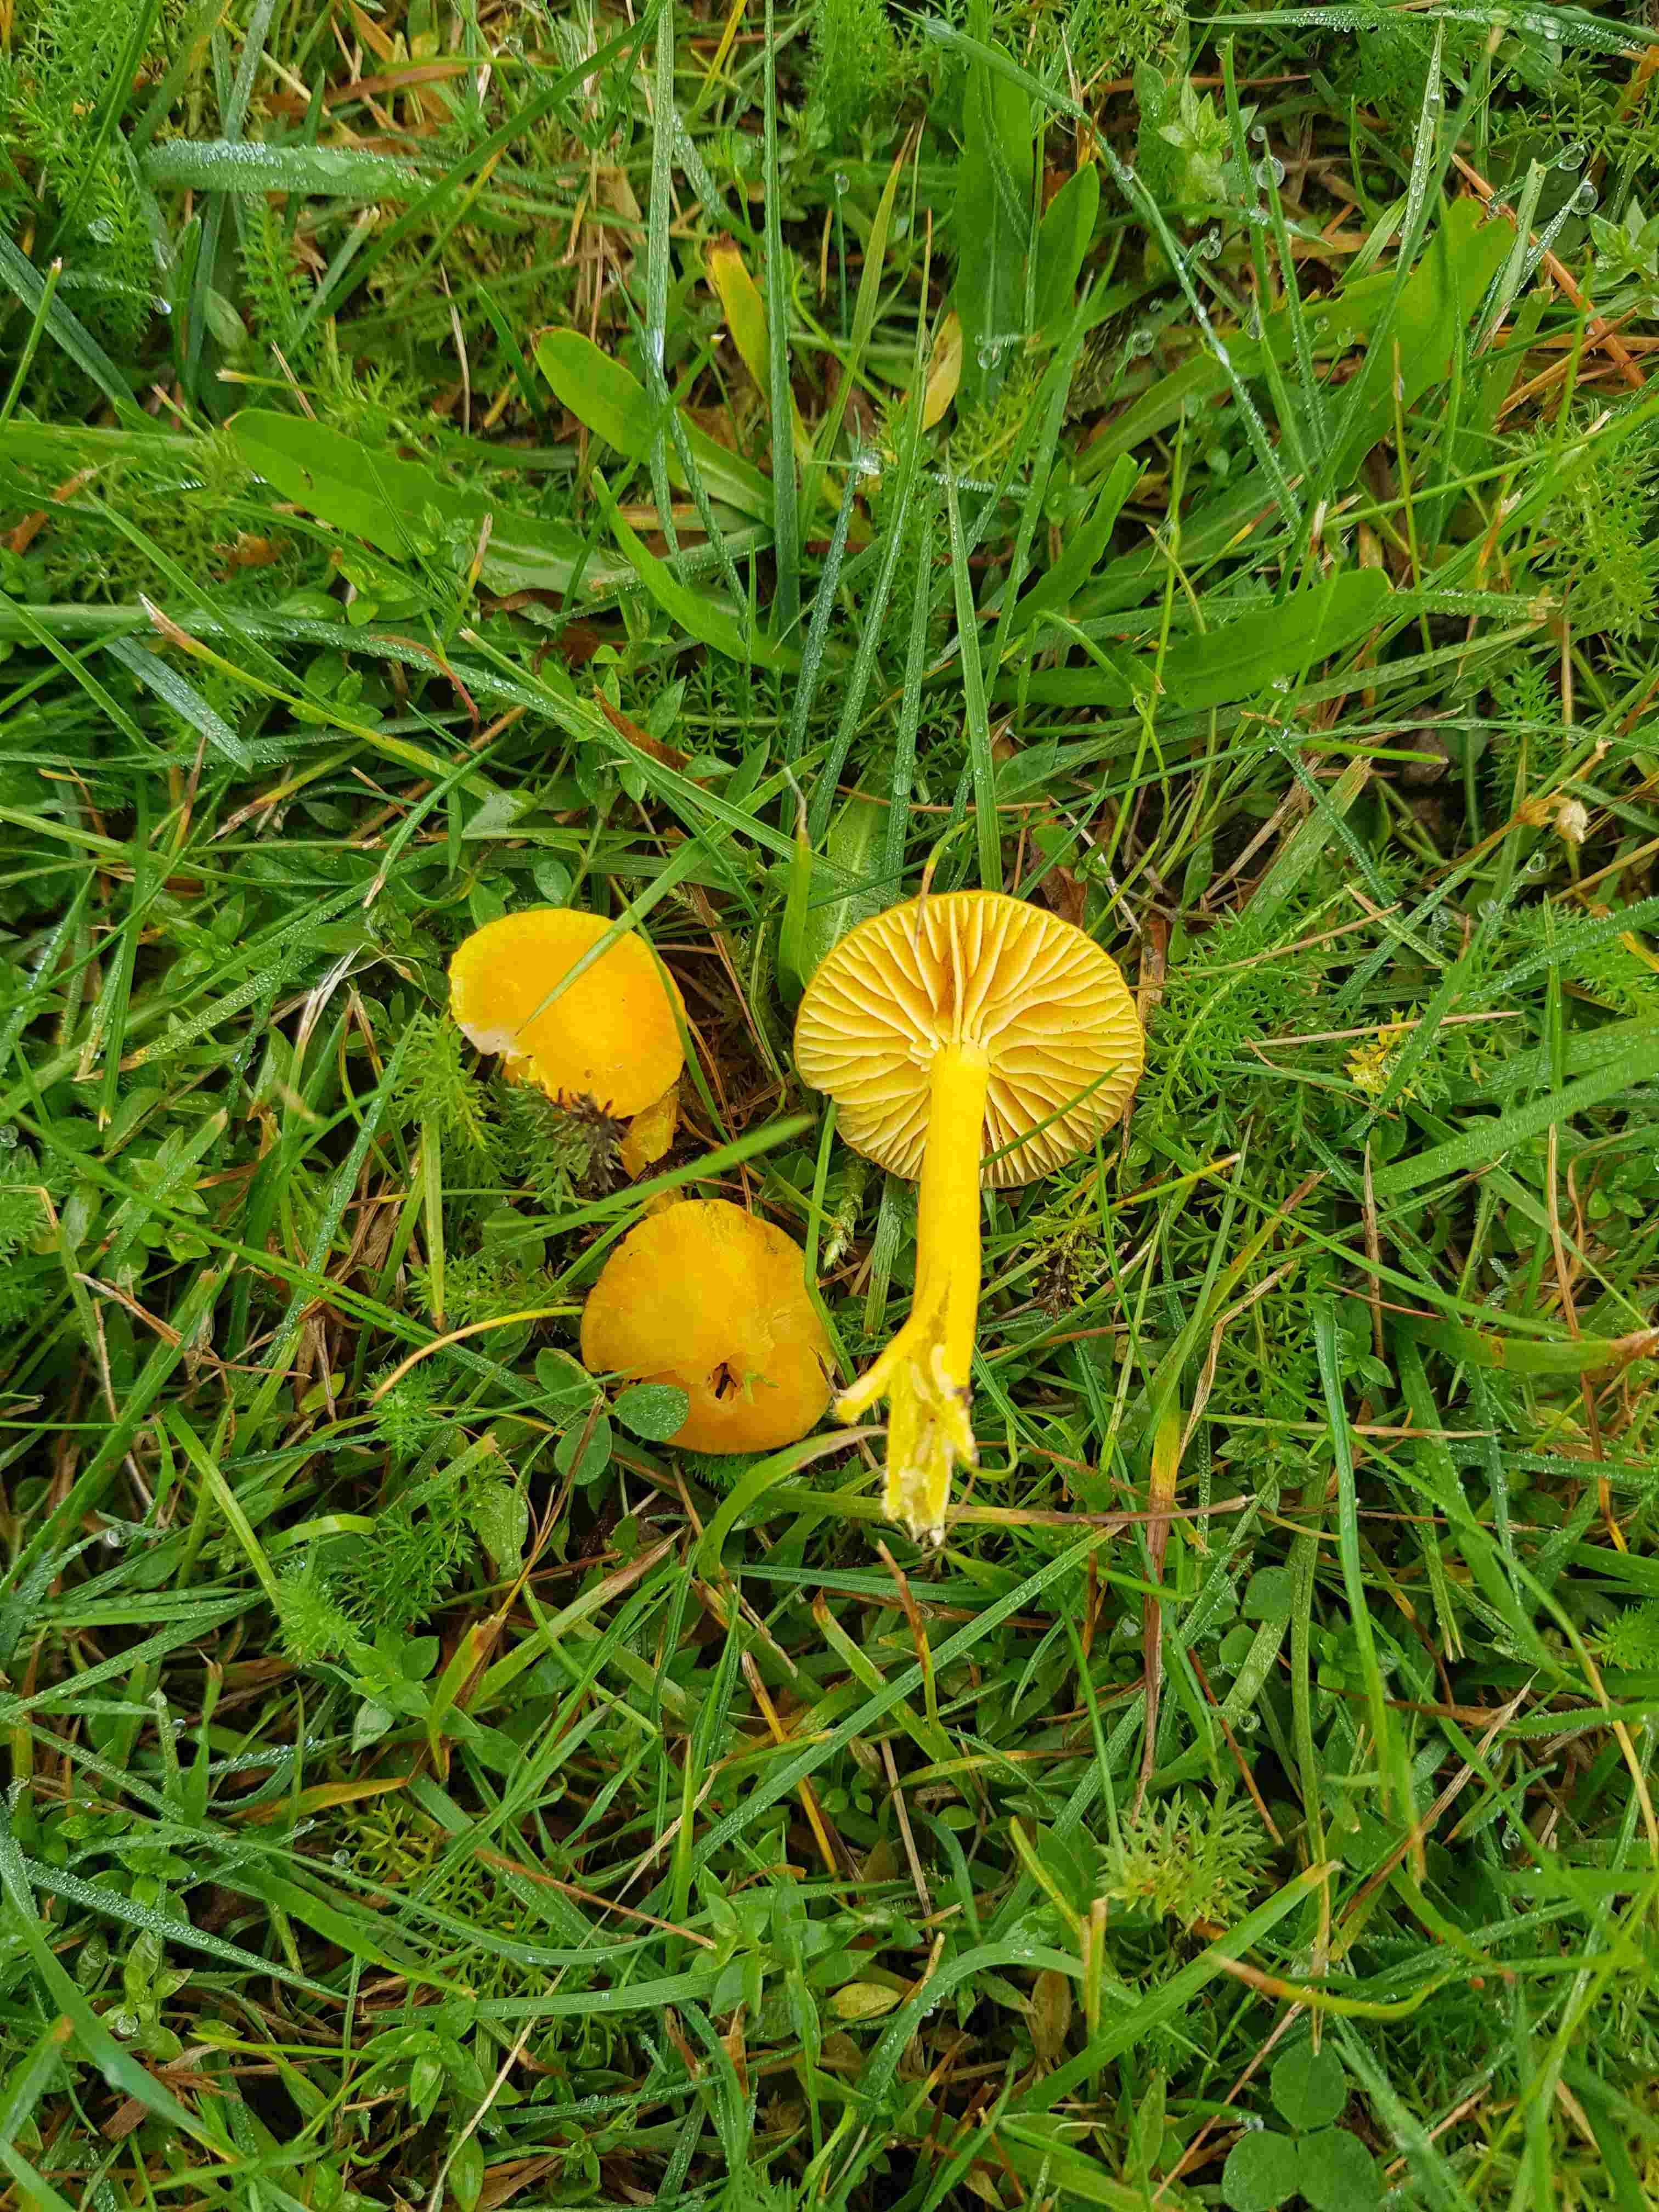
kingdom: Fungi
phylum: Basidiomycota
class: Agaricomycetes
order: Agaricales
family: Hygrophoraceae
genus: Hygrocybe
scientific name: Hygrocybe ceracea
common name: voksgul vokshat
